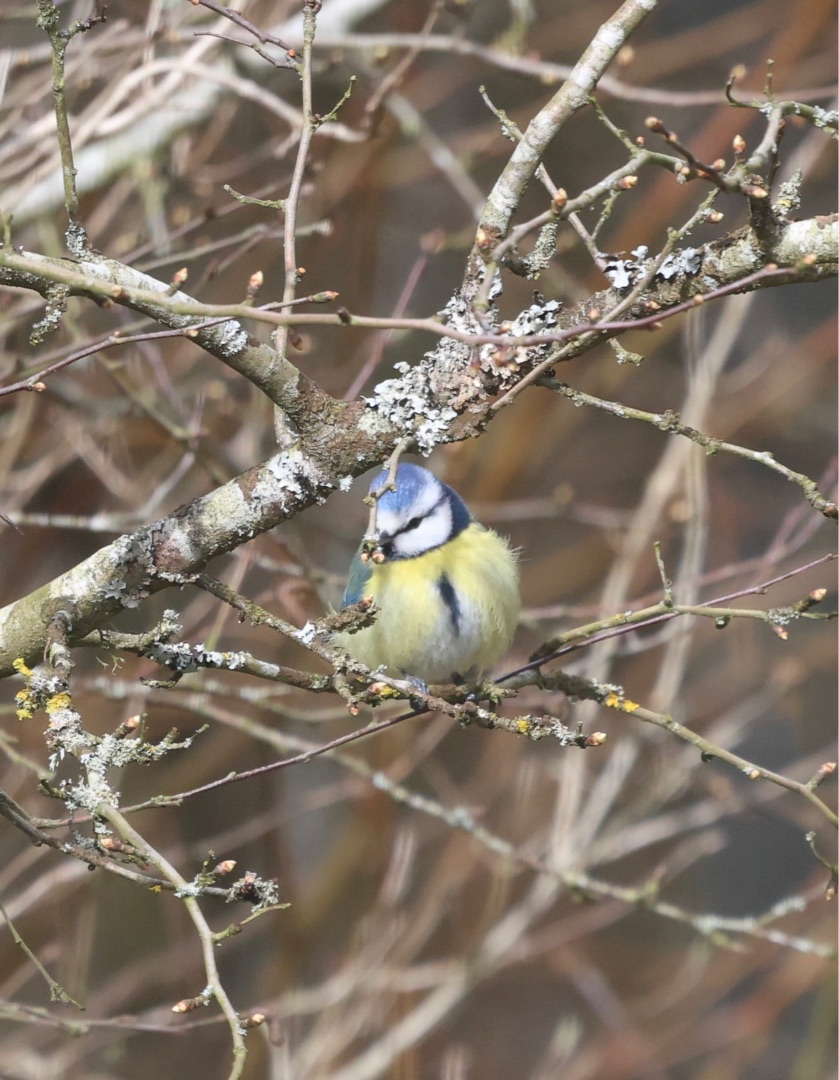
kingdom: Animalia
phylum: Chordata
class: Aves
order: Passeriformes
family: Paridae
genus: Cyanistes
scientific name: Cyanistes caeruleus
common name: Blåmejse
